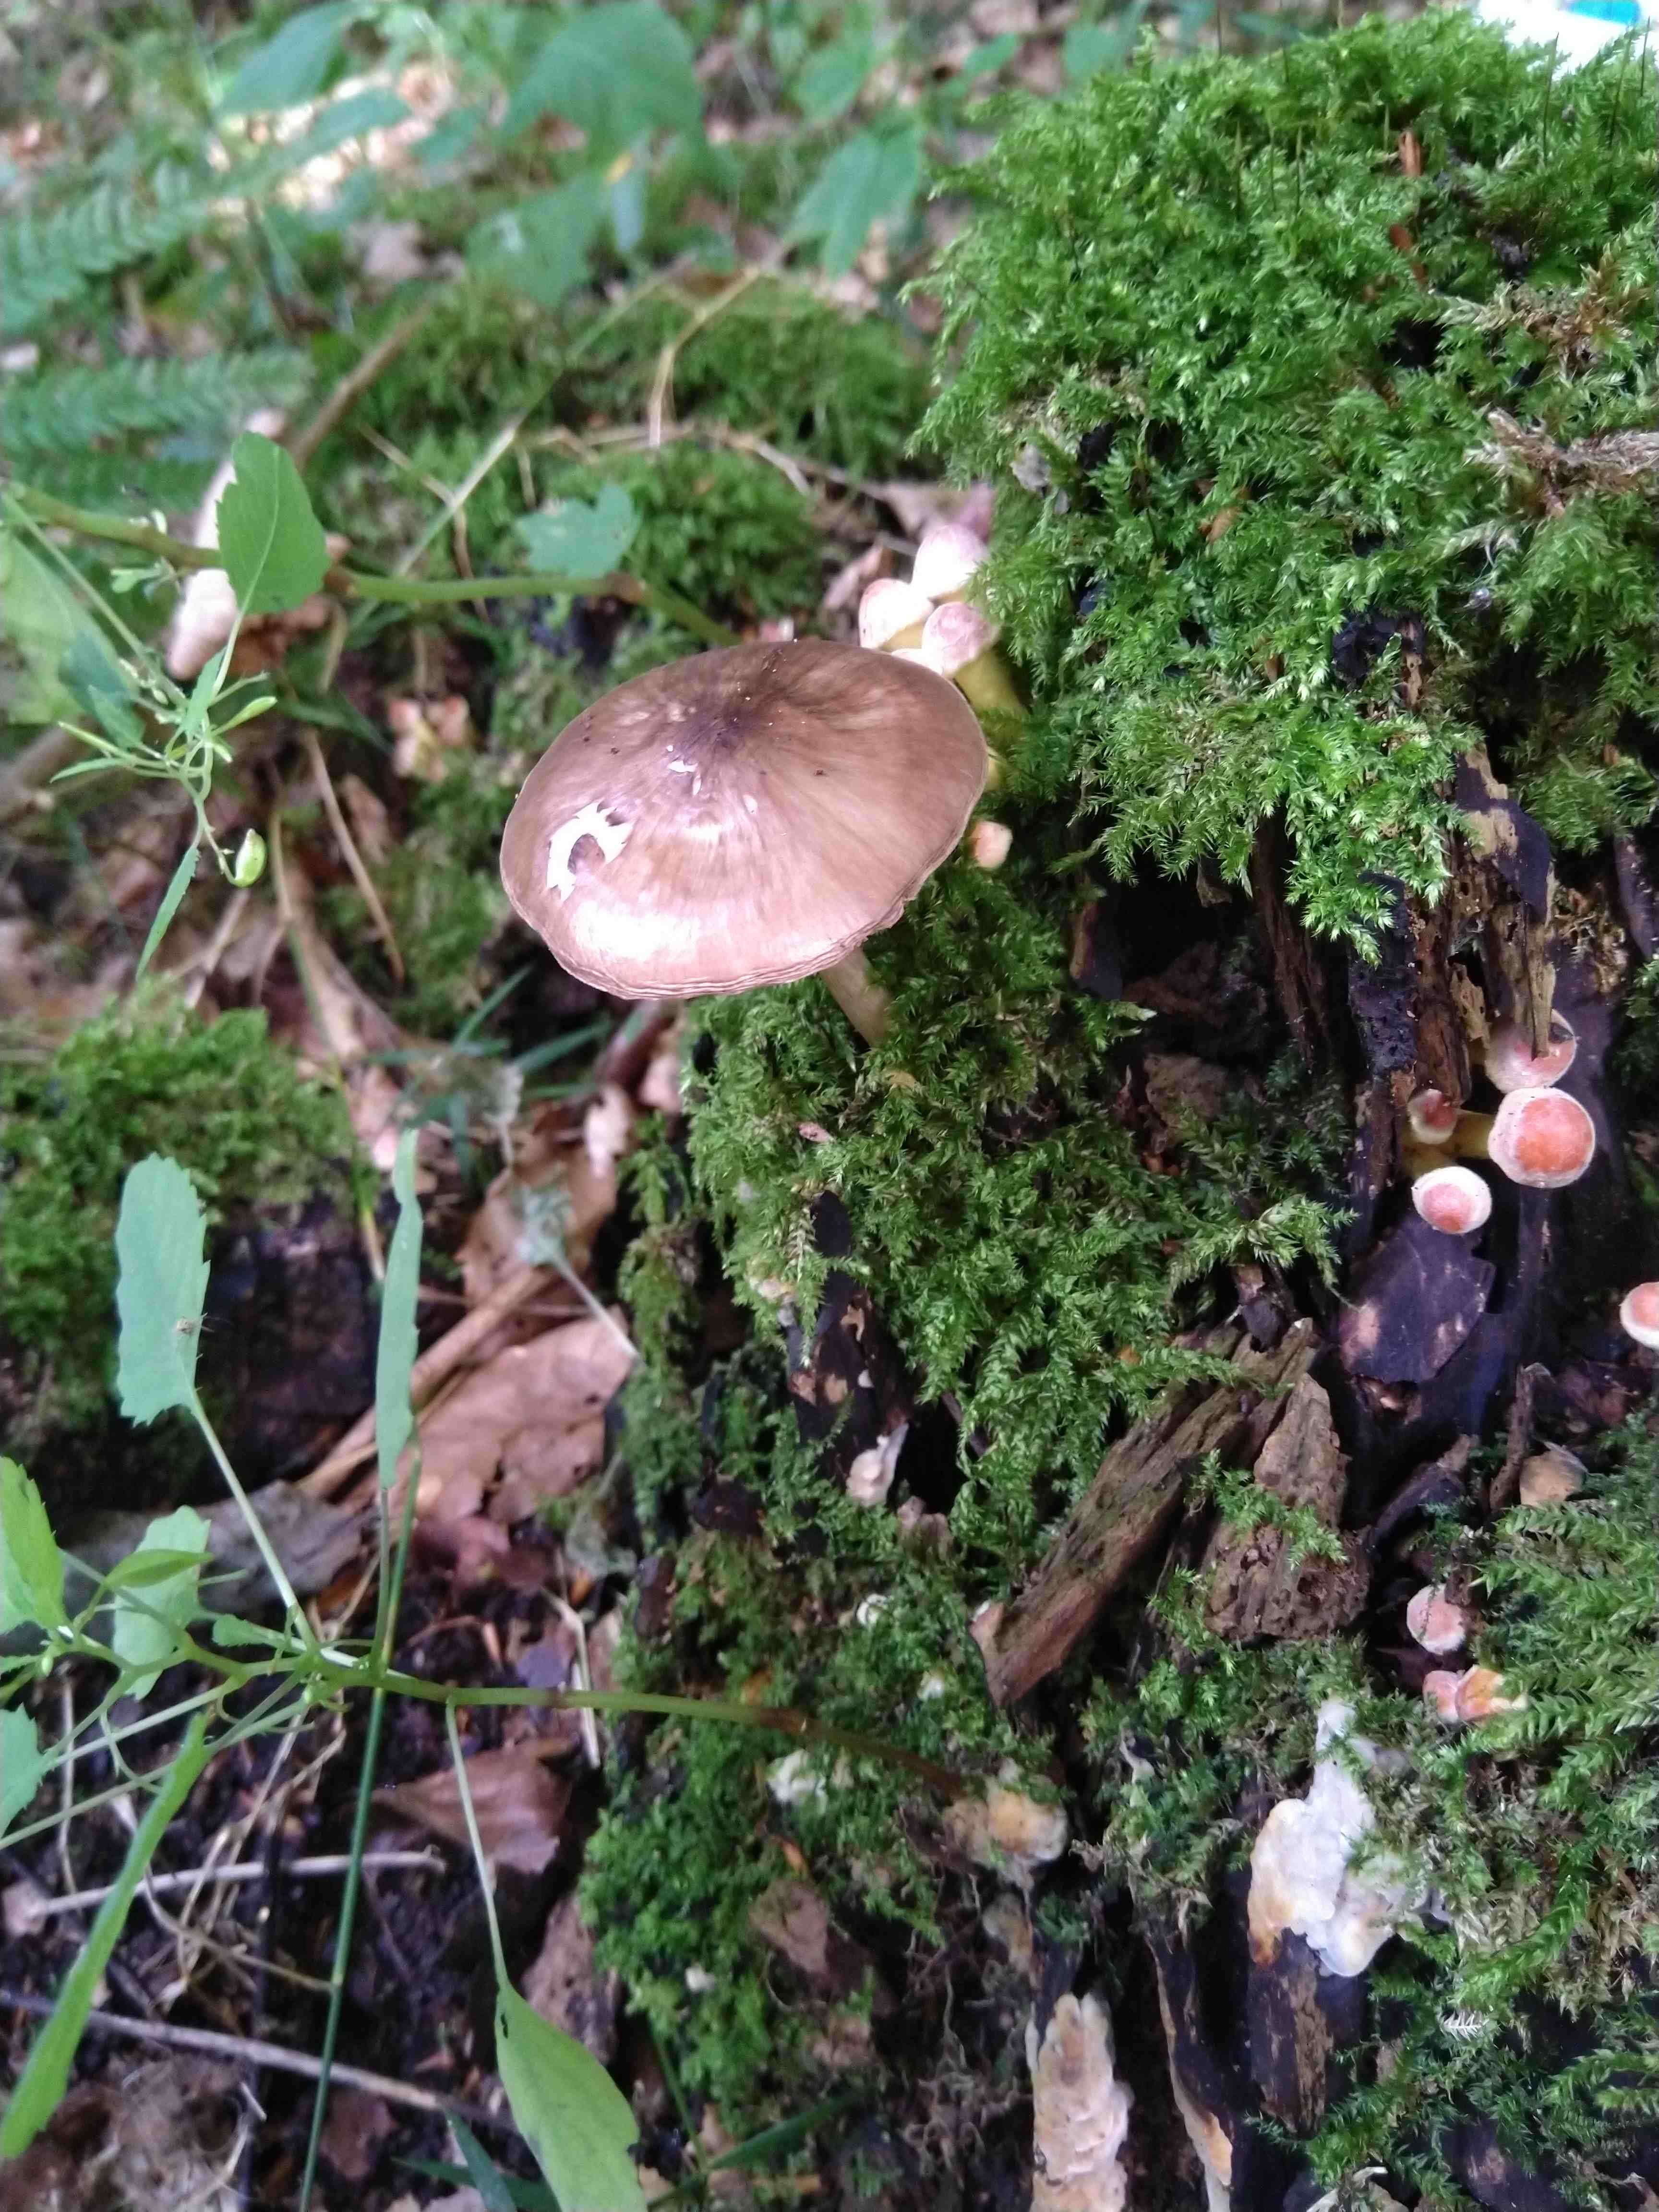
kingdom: Fungi
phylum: Basidiomycota
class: Agaricomycetes
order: Agaricales
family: Pluteaceae
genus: Pluteus
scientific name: Pluteus cervinus
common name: sodfarvet skærmhat
